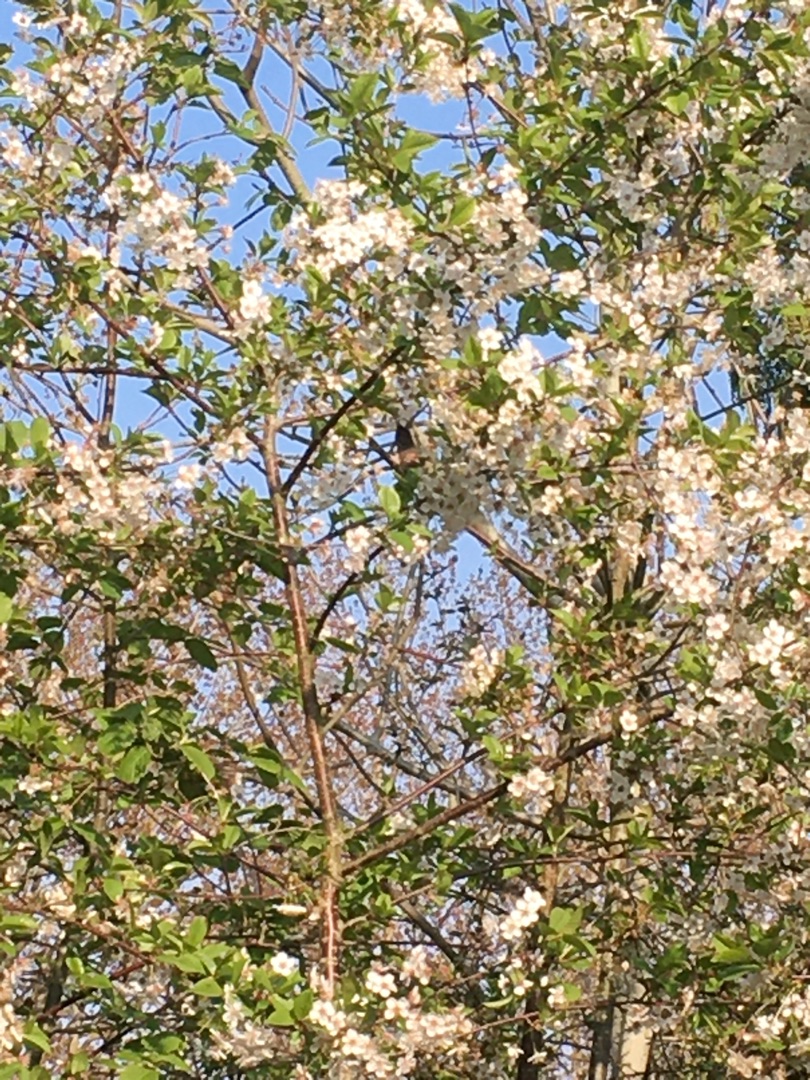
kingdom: Animalia
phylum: Chordata
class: Aves
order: Passeriformes
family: Sylviidae
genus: Sylvia
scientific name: Sylvia atricapilla
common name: Munk
